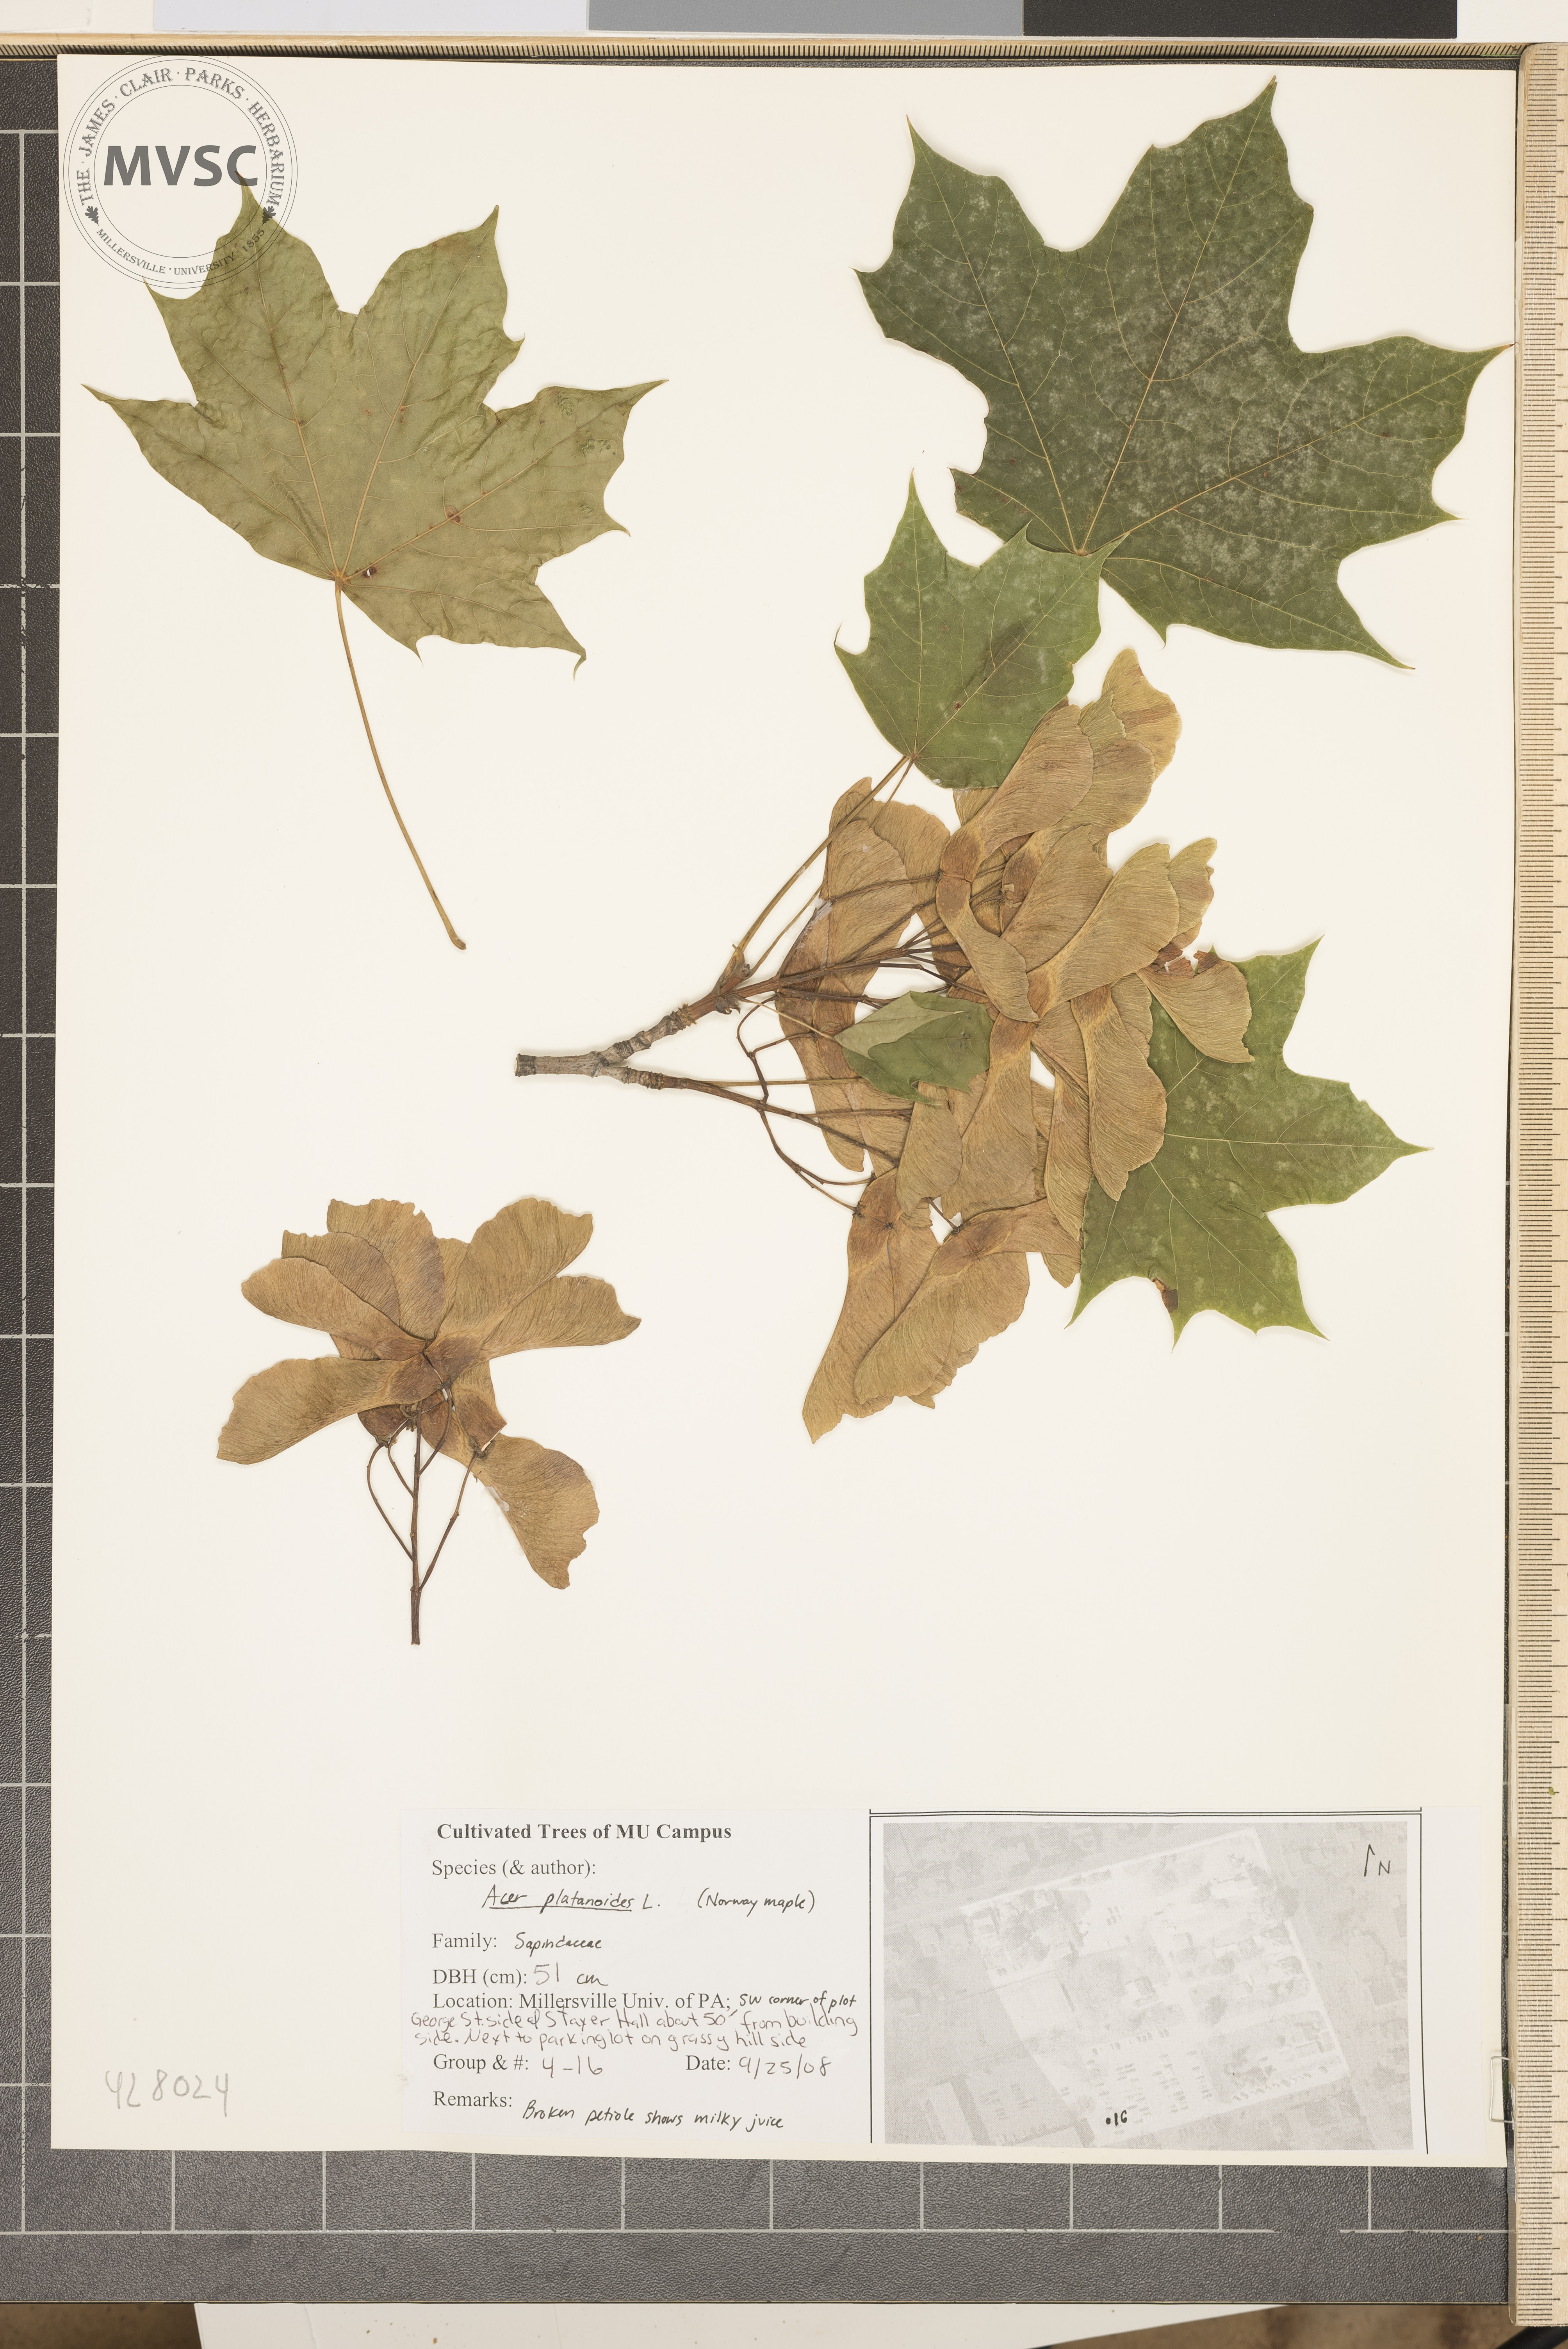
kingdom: Plantae
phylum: Tracheophyta
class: Magnoliopsida
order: Sapindales
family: Sapindaceae
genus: Acer
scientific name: Acer platanoides
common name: Norway Maple
